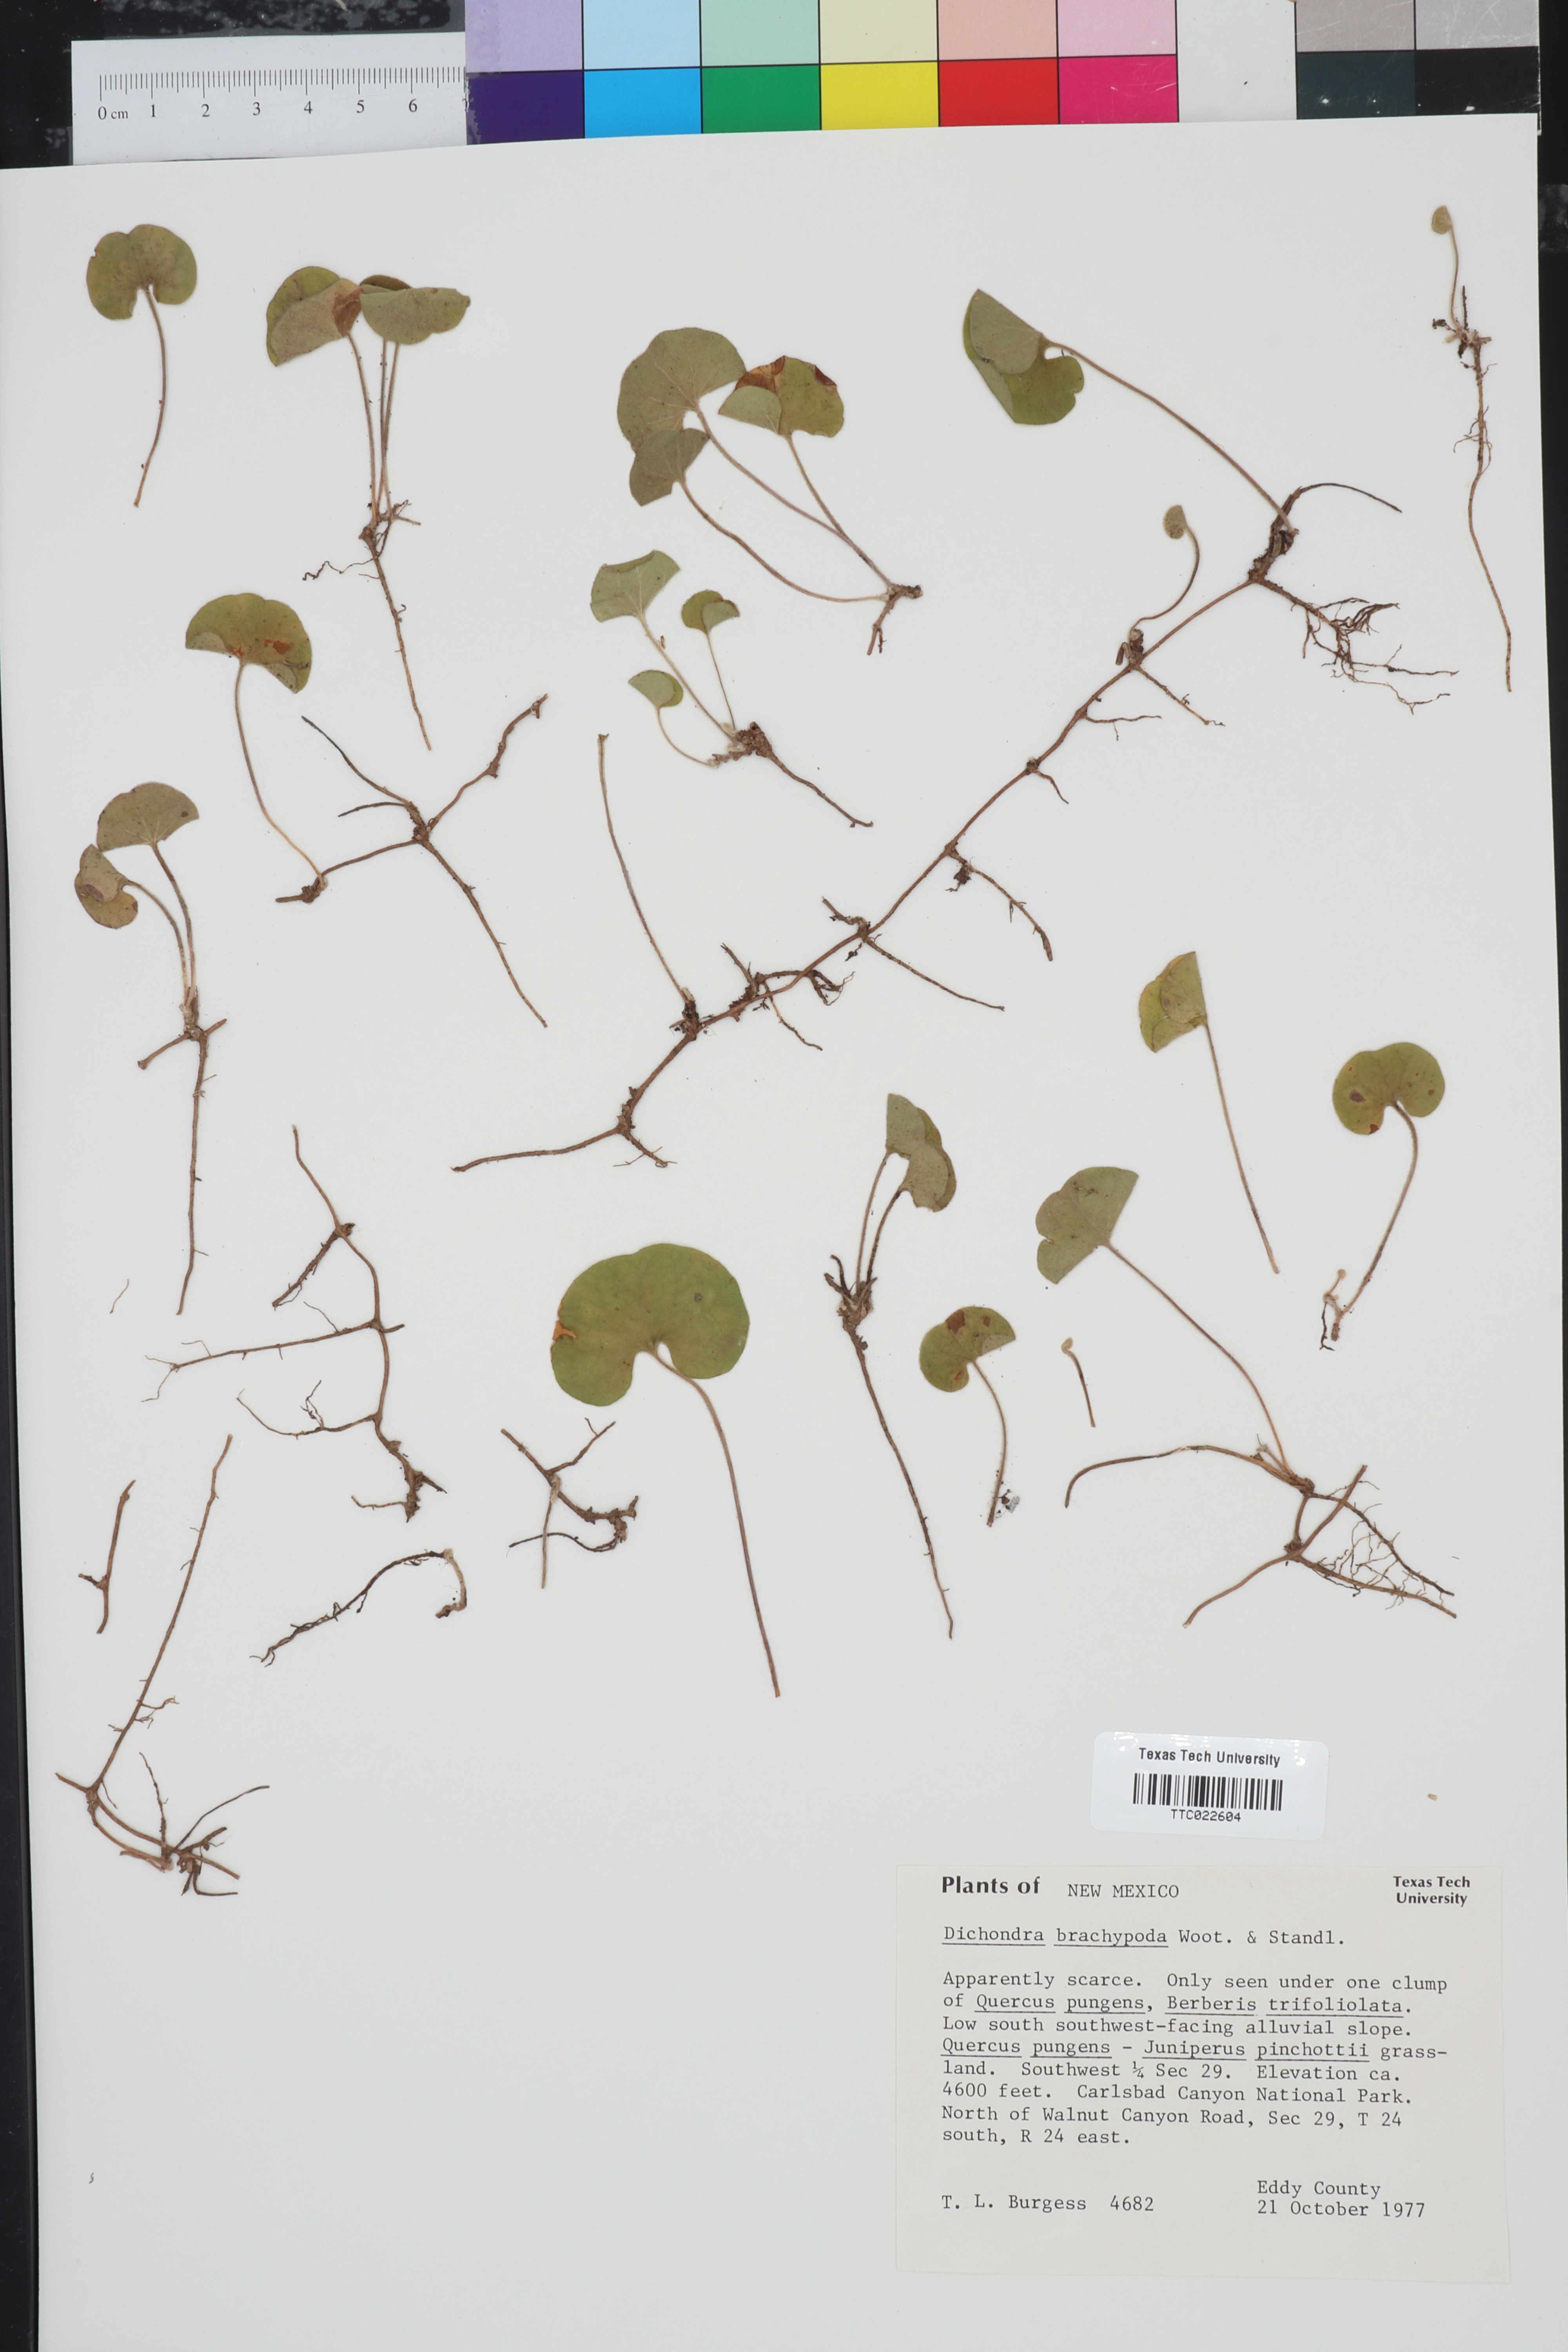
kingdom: Plantae
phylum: Tracheophyta
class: Magnoliopsida
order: Solanales
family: Convolvulaceae
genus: Dichondra
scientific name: Dichondra brachypoda
